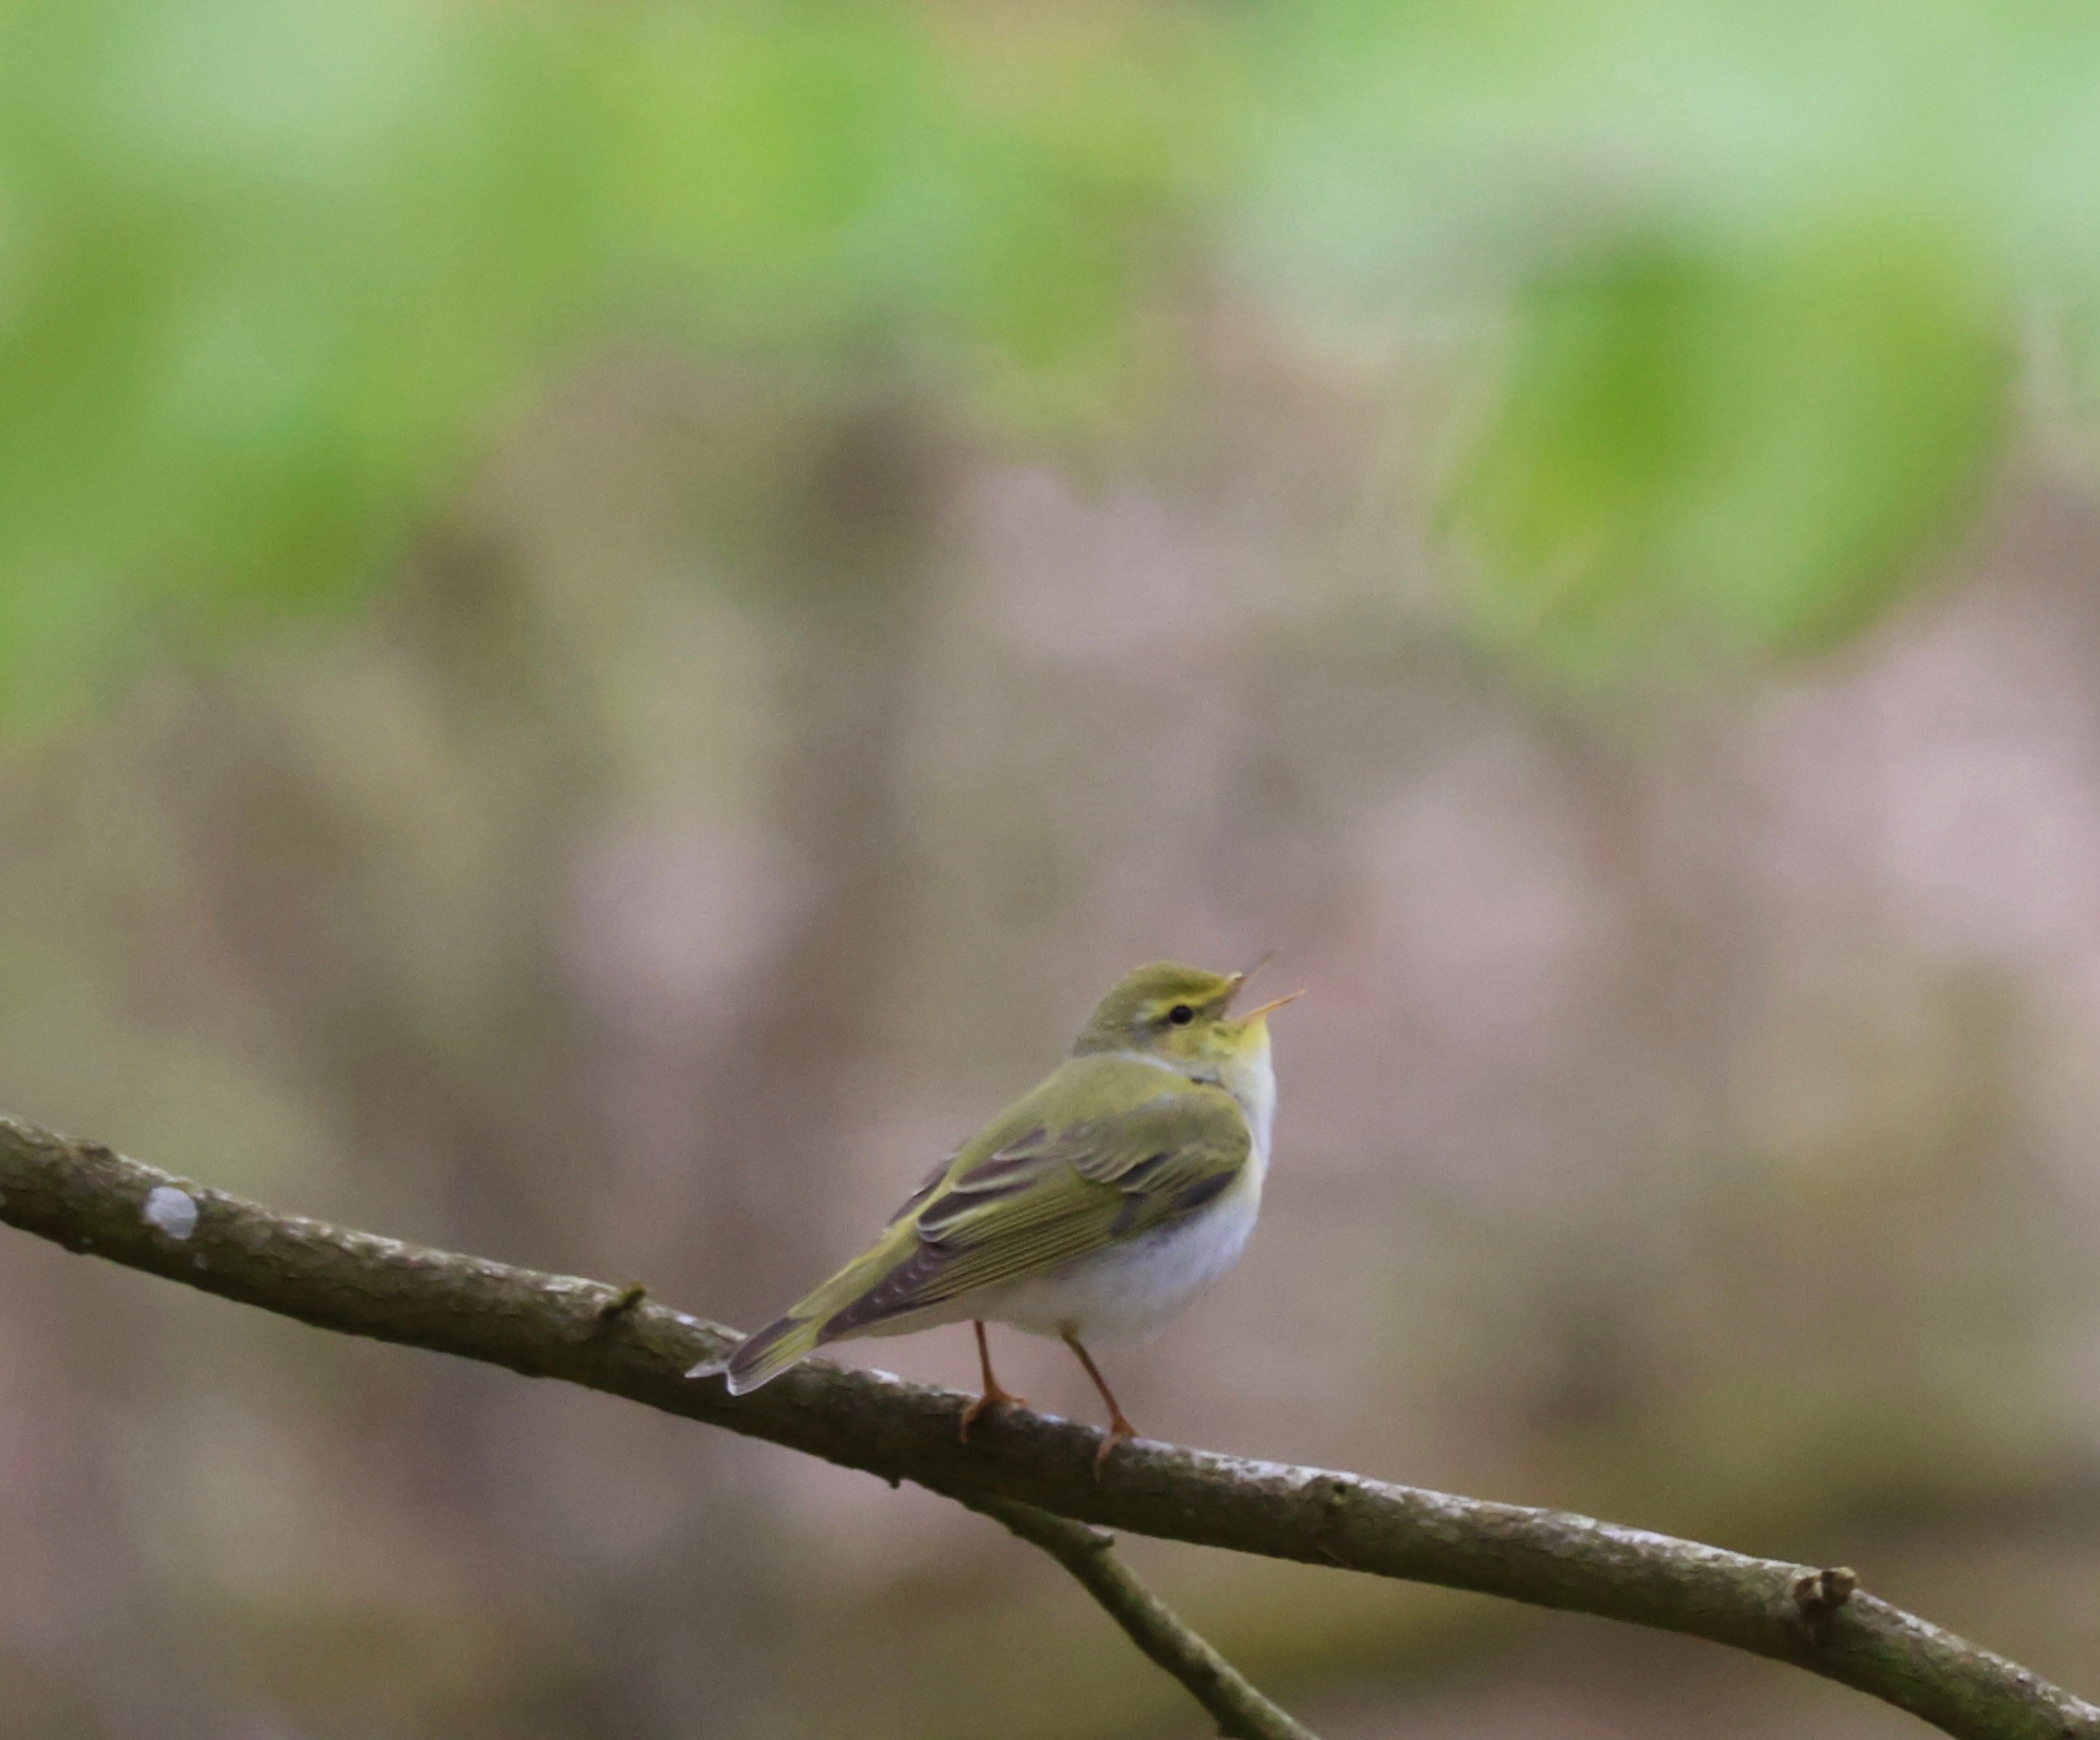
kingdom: Animalia
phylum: Chordata
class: Aves
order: Passeriformes
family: Phylloscopidae
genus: Phylloscopus
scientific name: Phylloscopus sibillatrix
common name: Skovsanger
